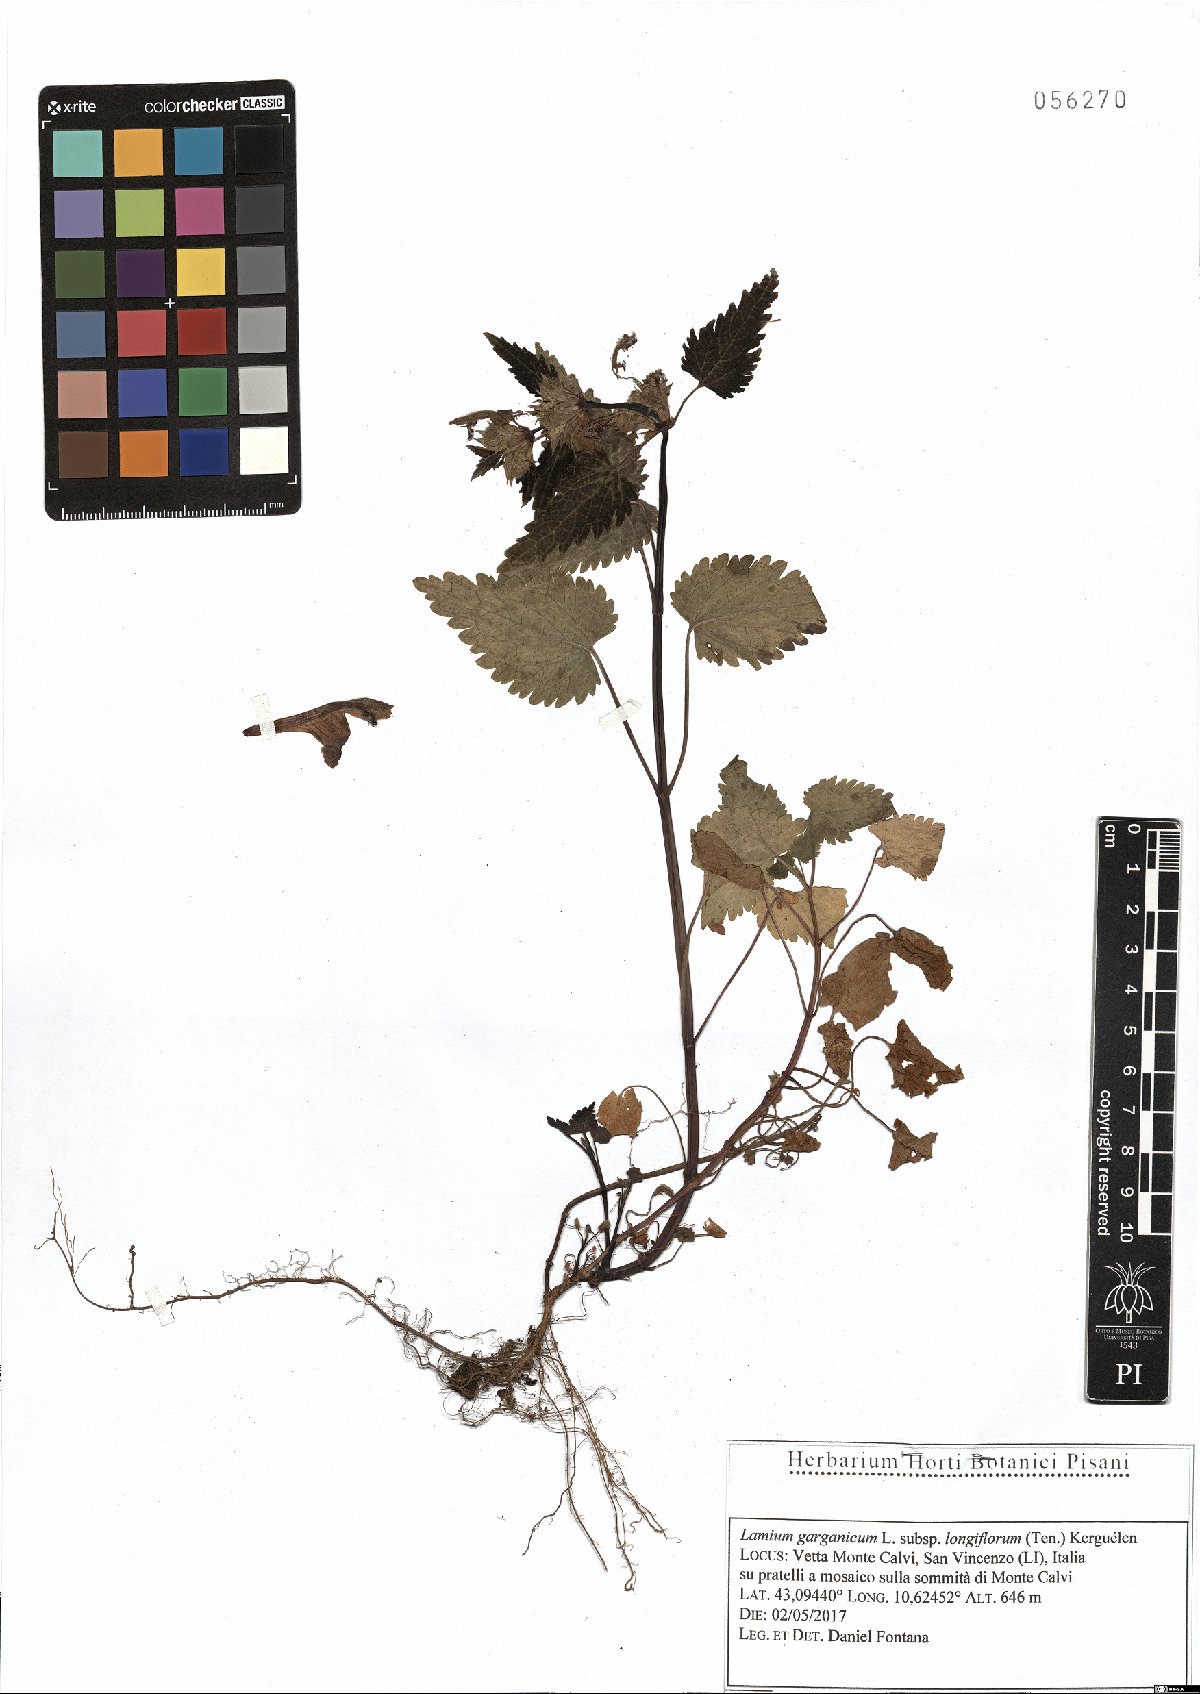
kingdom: Plantae
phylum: Tracheophyta
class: Magnoliopsida
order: Lamiales
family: Lamiaceae
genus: Lamium
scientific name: Lamium garganicum
